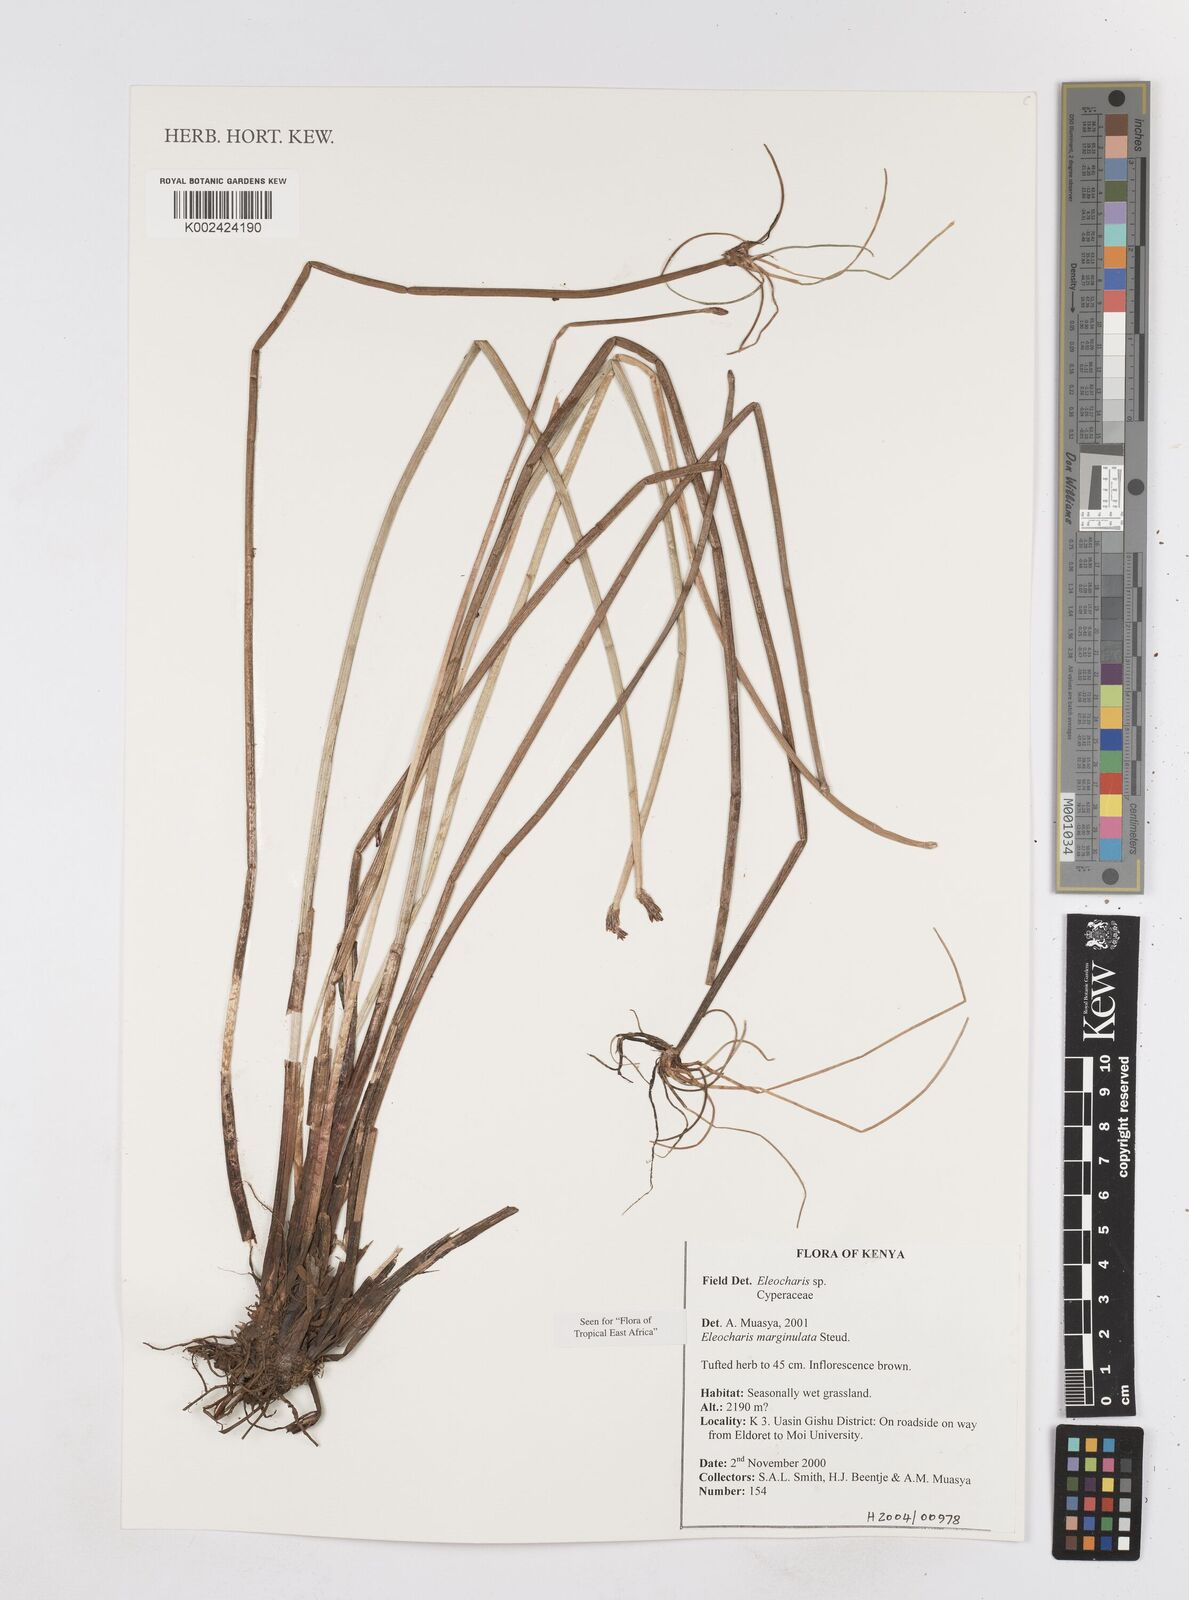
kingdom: Plantae
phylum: Tracheophyta
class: Liliopsida
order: Poales
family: Cyperaceae
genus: Eleocharis
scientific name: Eleocharis marginulata
